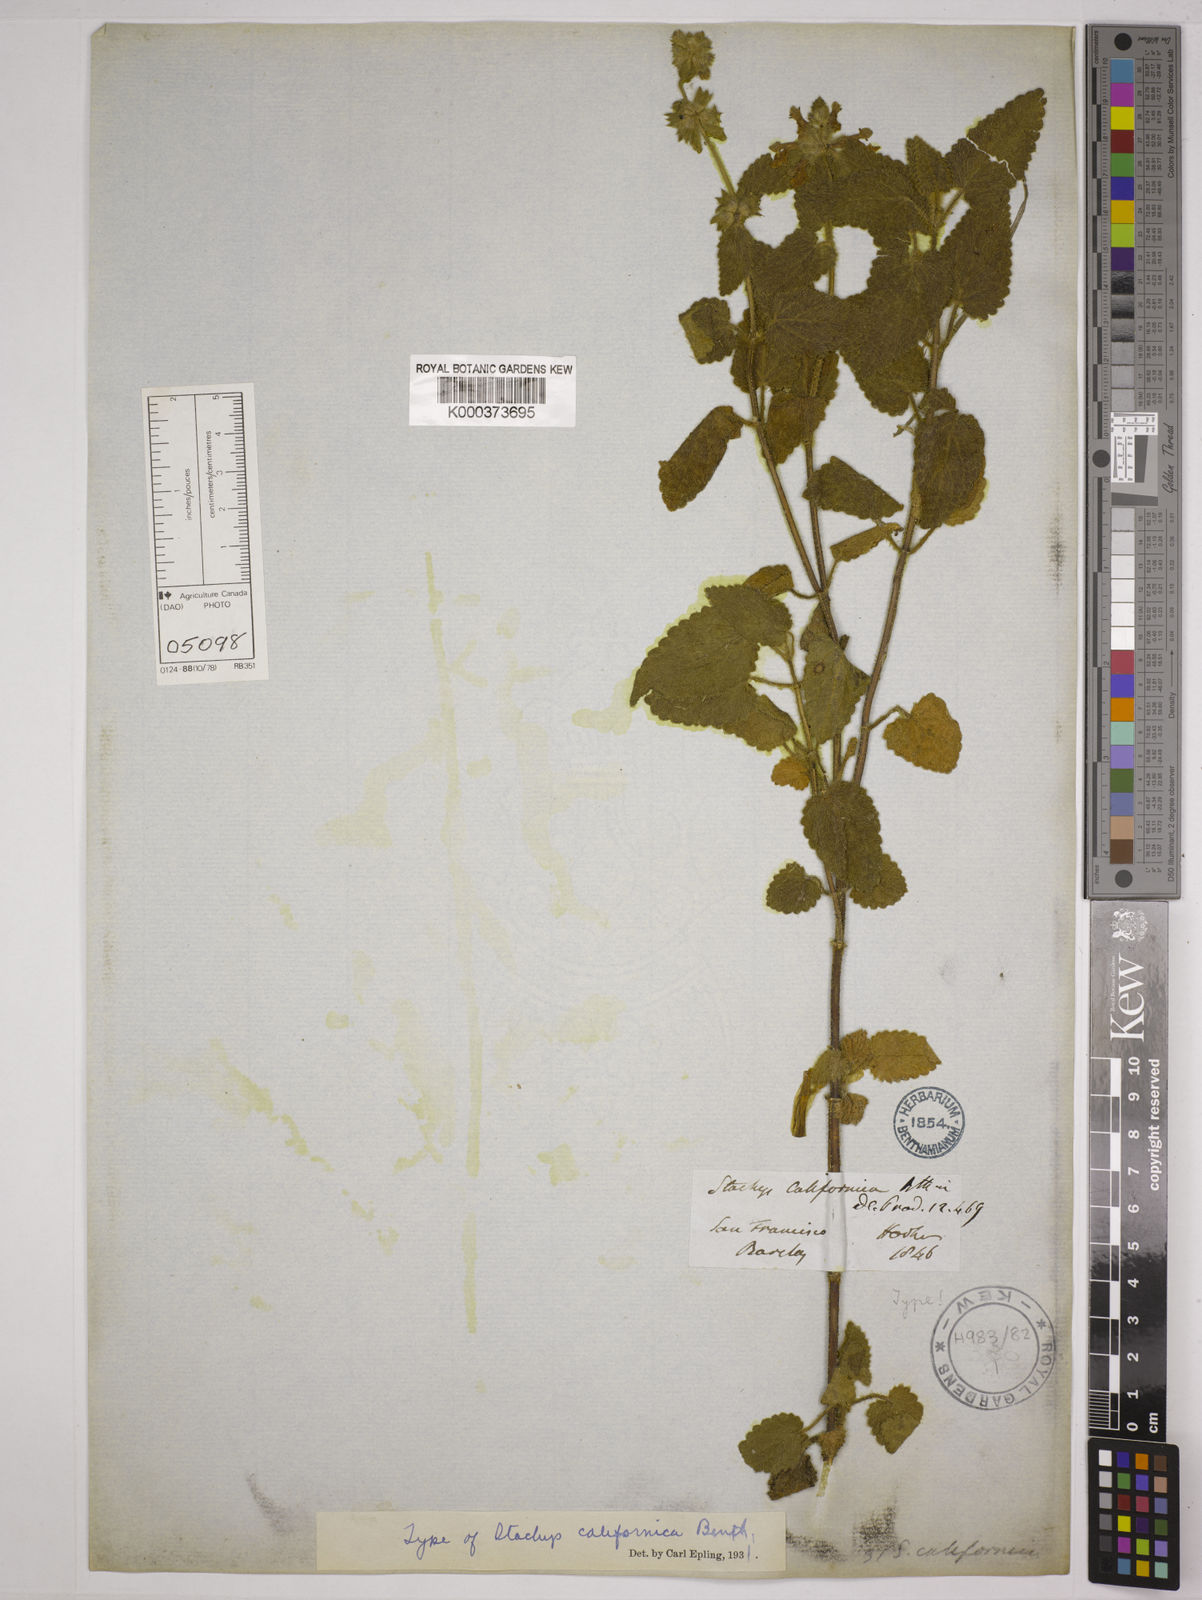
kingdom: Plantae
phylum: Tracheophyta
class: Magnoliopsida
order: Lamiales
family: Lamiaceae
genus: Stachys
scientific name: Stachys bullata
